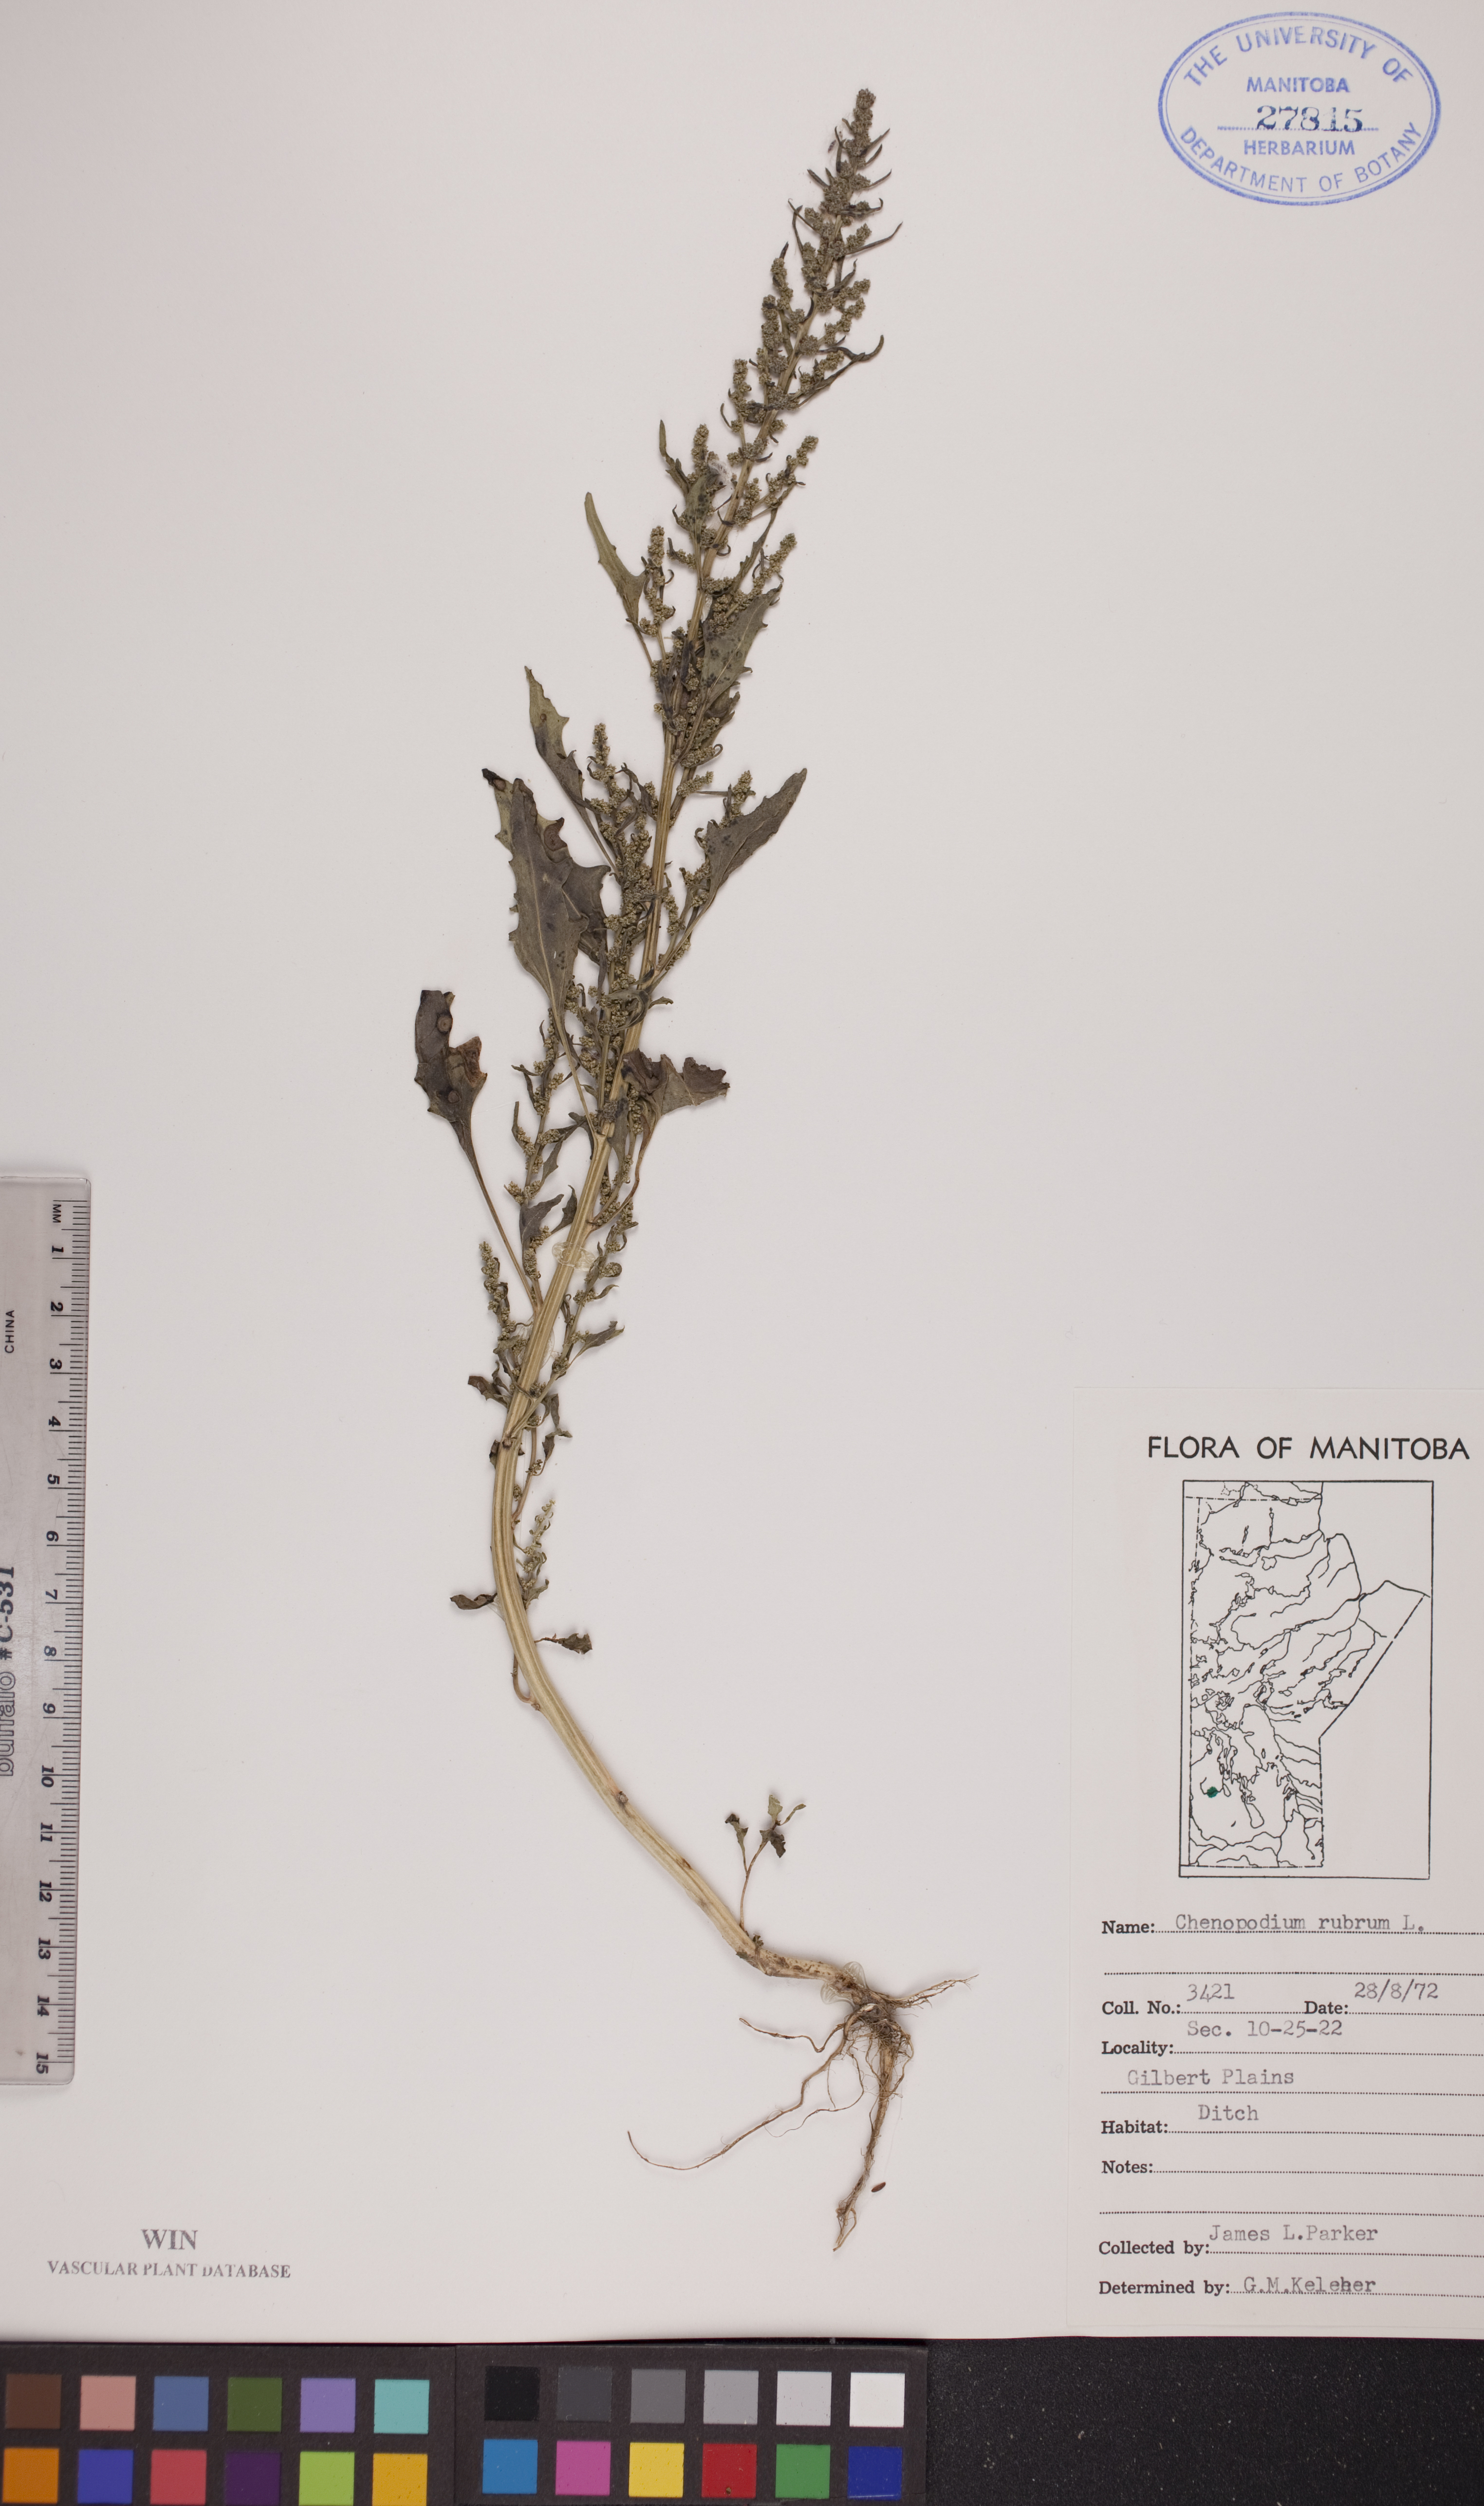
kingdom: Plantae
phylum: Tracheophyta
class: Magnoliopsida
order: Caryophyllales
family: Amaranthaceae
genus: Oxybasis
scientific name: Oxybasis rubra
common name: Red goosefoot
